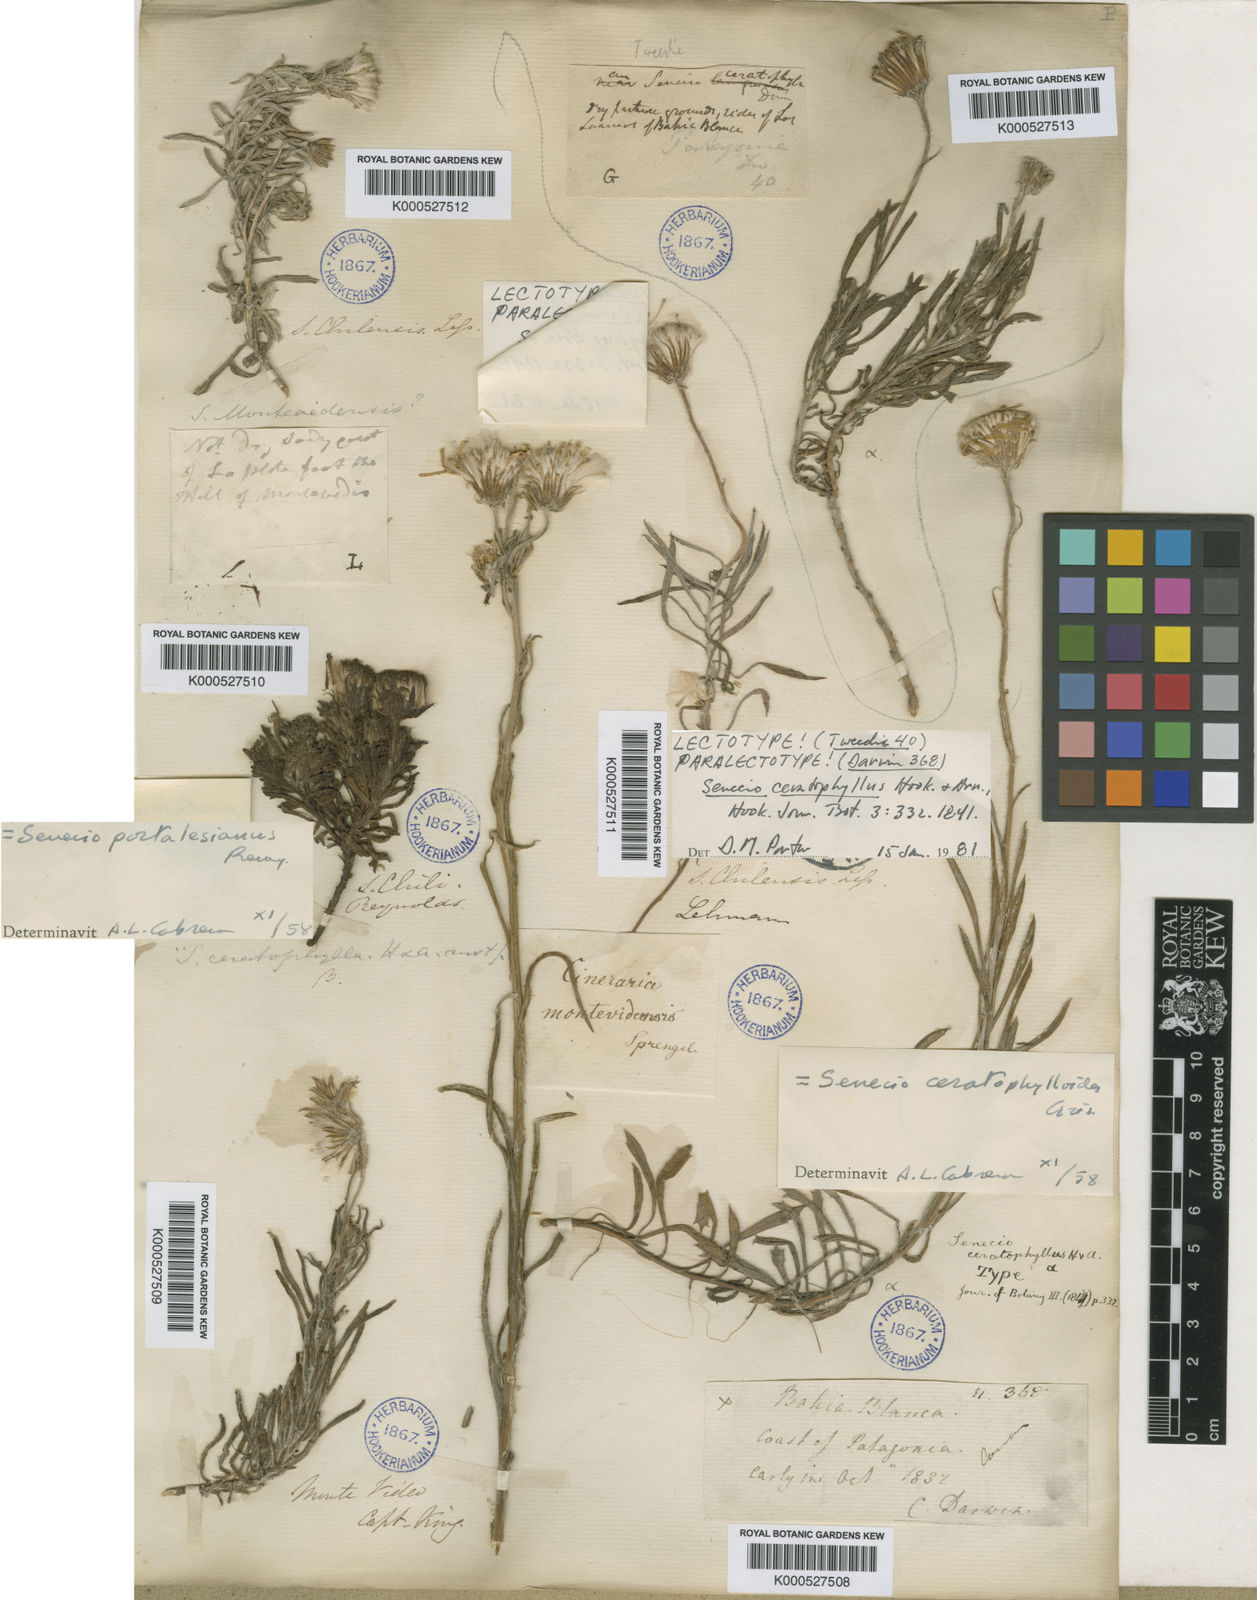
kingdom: Plantae
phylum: Tracheophyta
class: Magnoliopsida
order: Asterales
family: Asteraceae
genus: Senecio
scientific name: Senecio ceratophylloides
